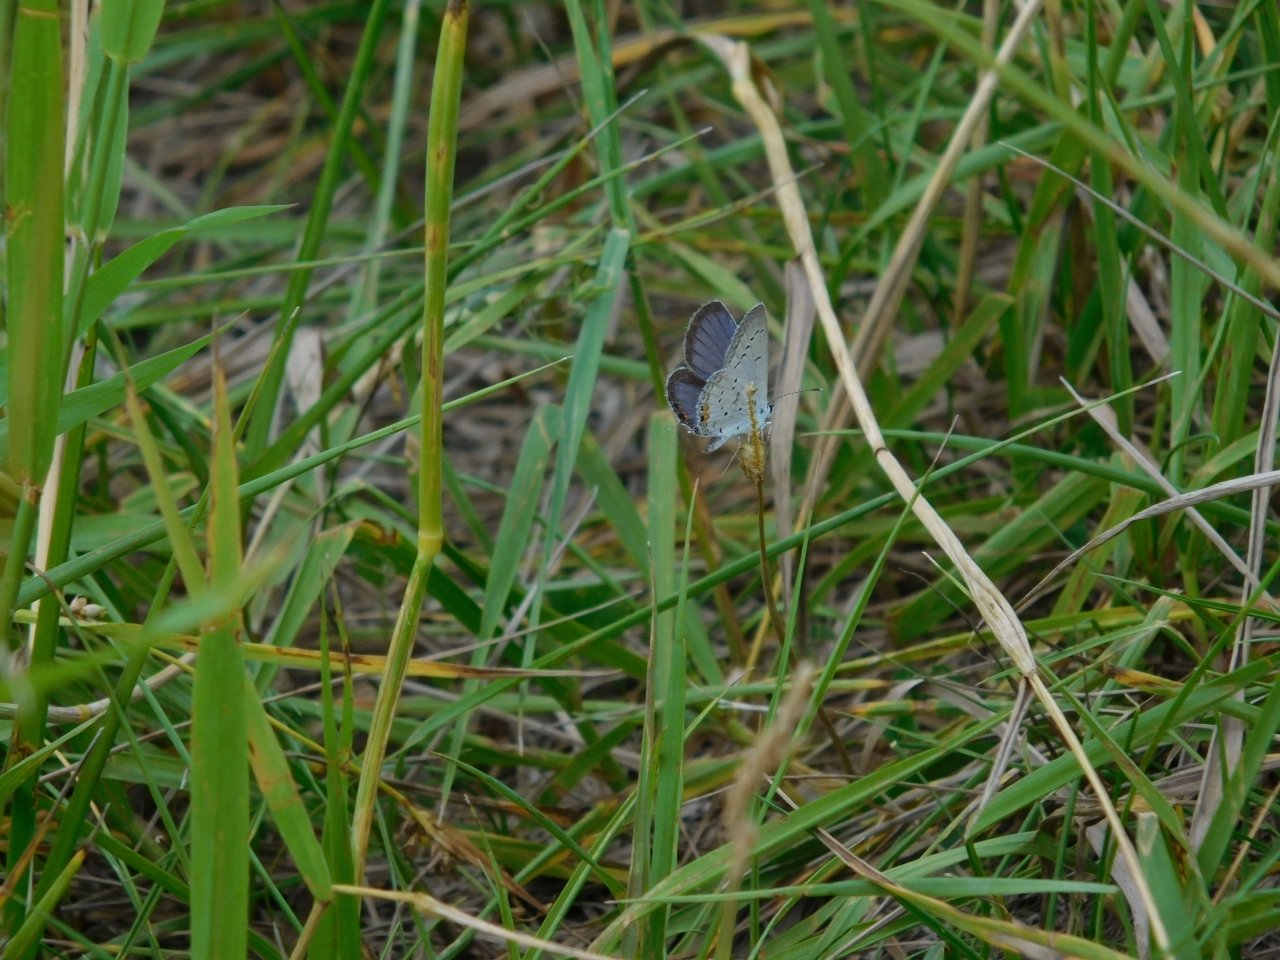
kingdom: Animalia
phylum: Arthropoda
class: Insecta
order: Lepidoptera
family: Lycaenidae
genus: Elkalyce
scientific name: Elkalyce comyntas
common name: Eastern Tailed-Blue
